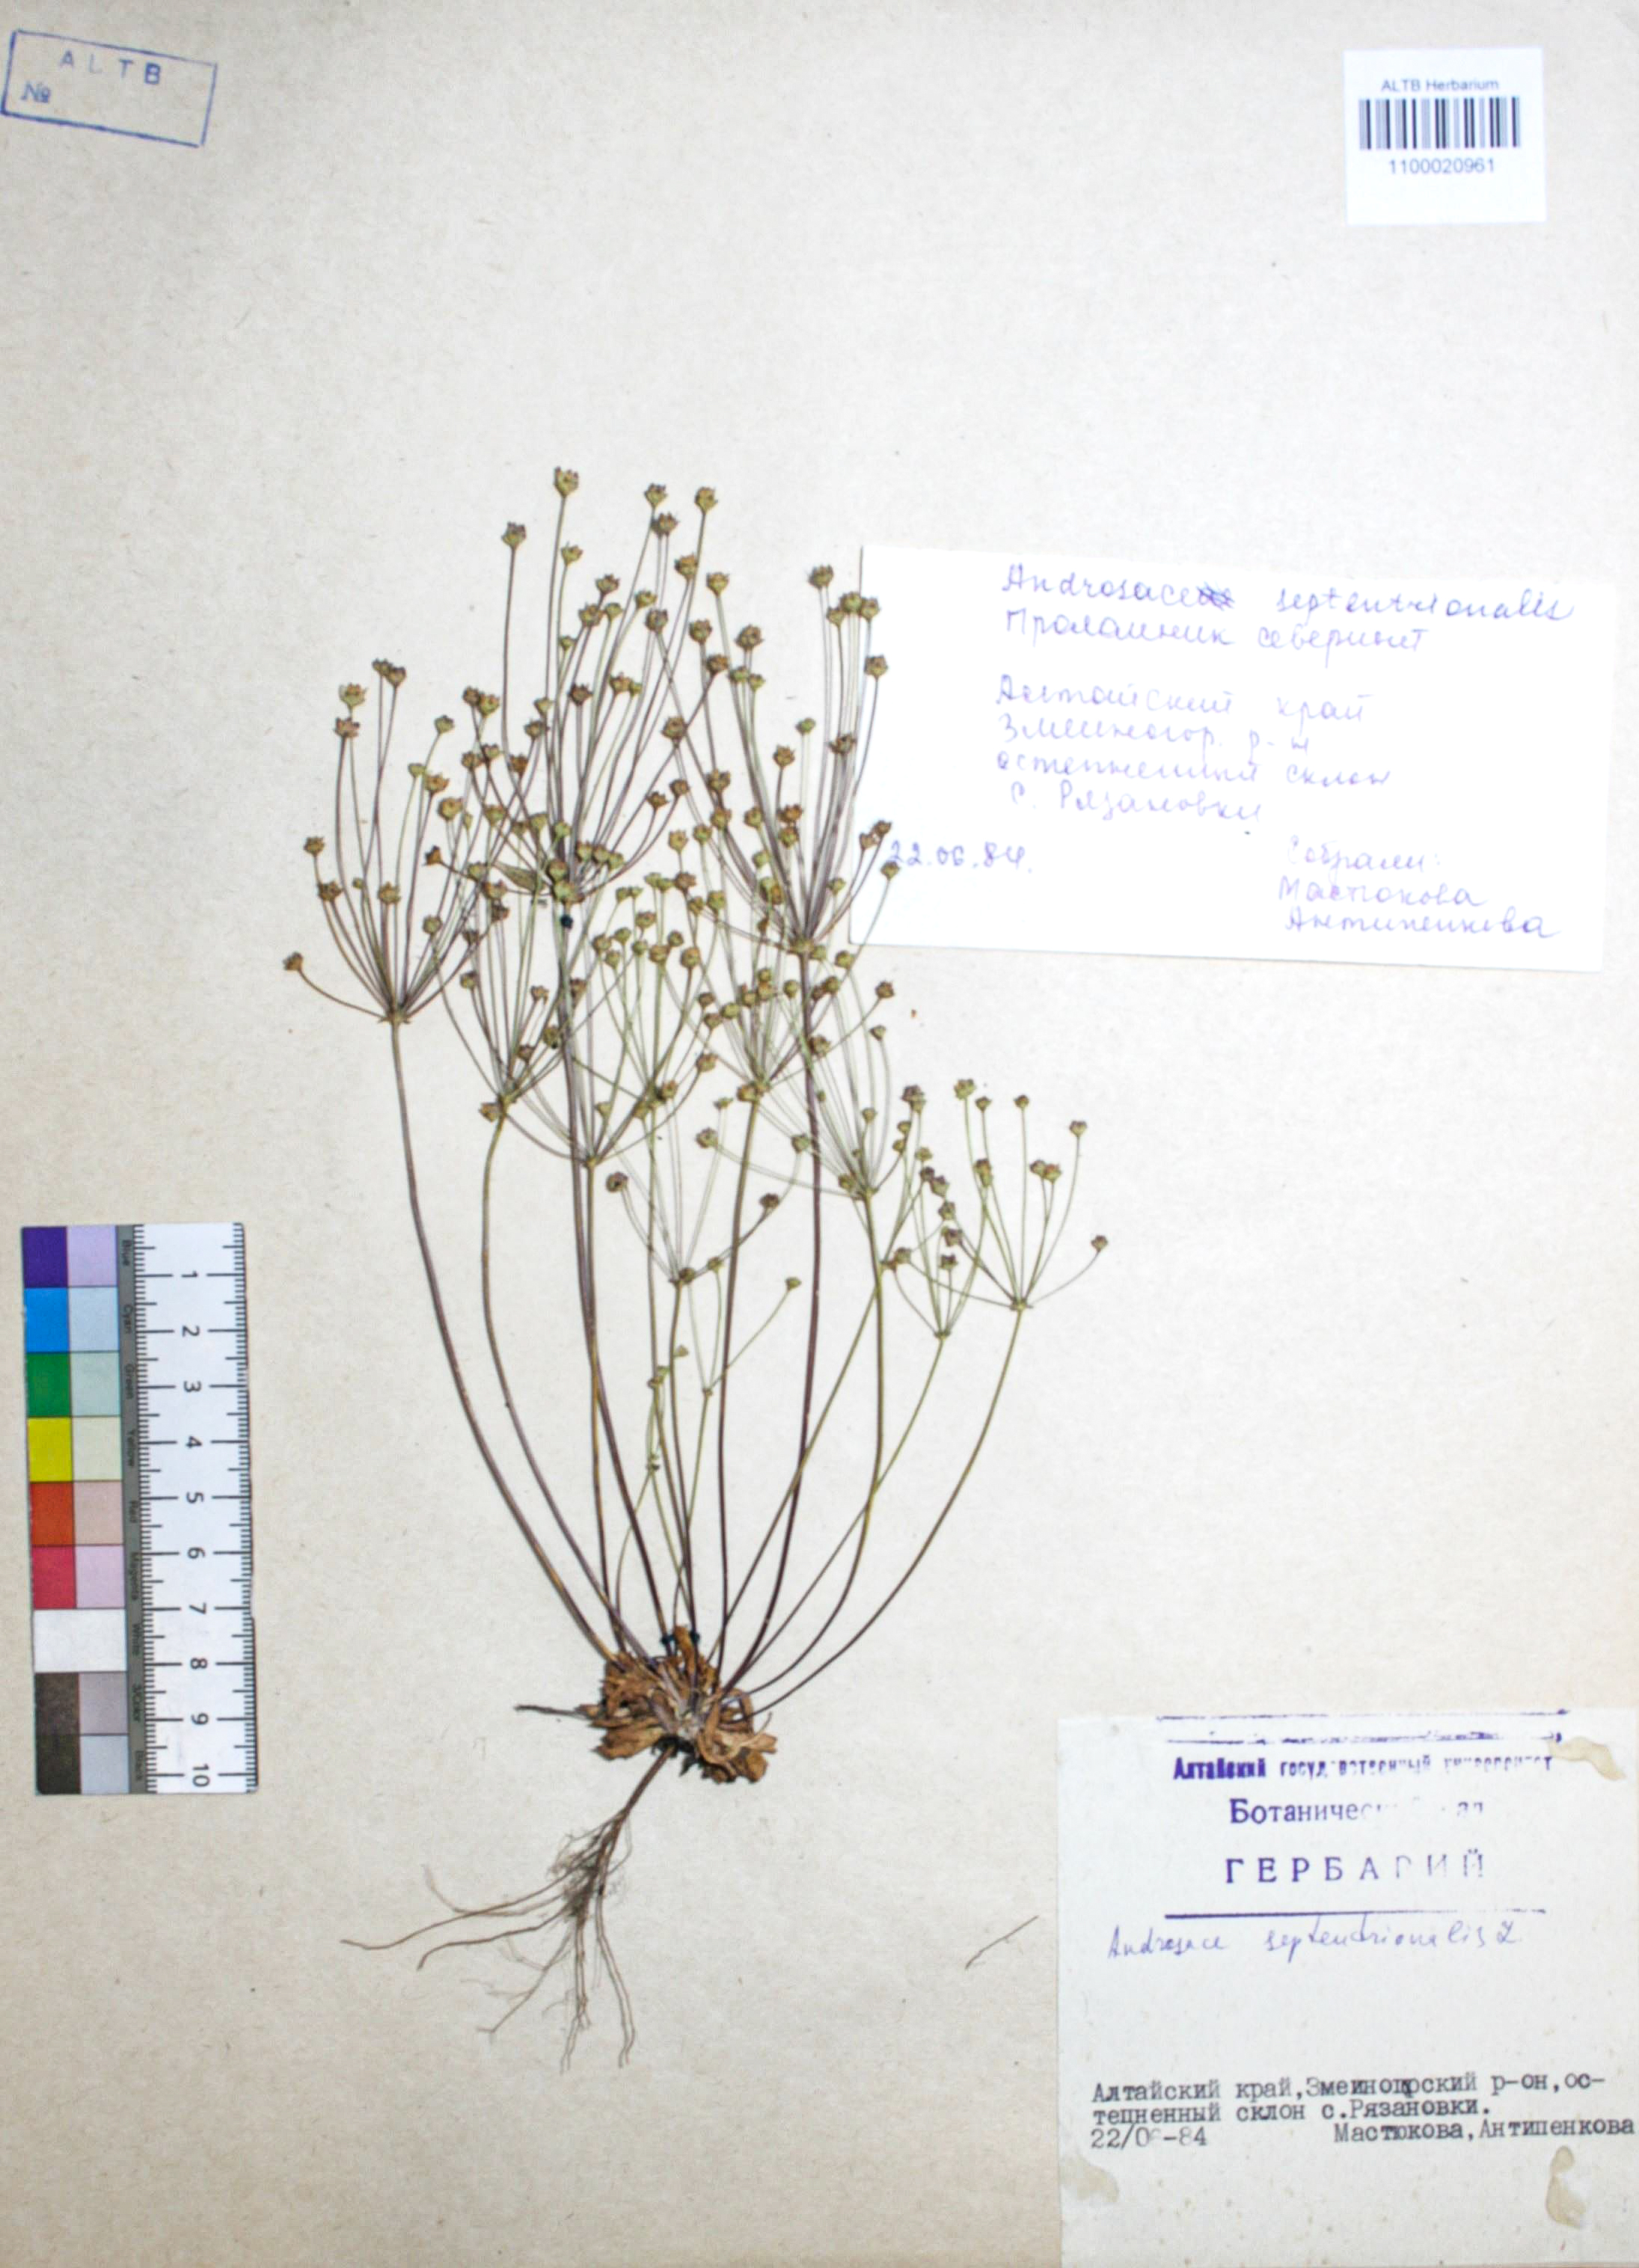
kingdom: Plantae
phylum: Tracheophyta
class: Magnoliopsida
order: Ericales
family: Primulaceae
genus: Androsace
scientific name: Androsace septentrionalis
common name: Hairy northern fairy-candelabra
